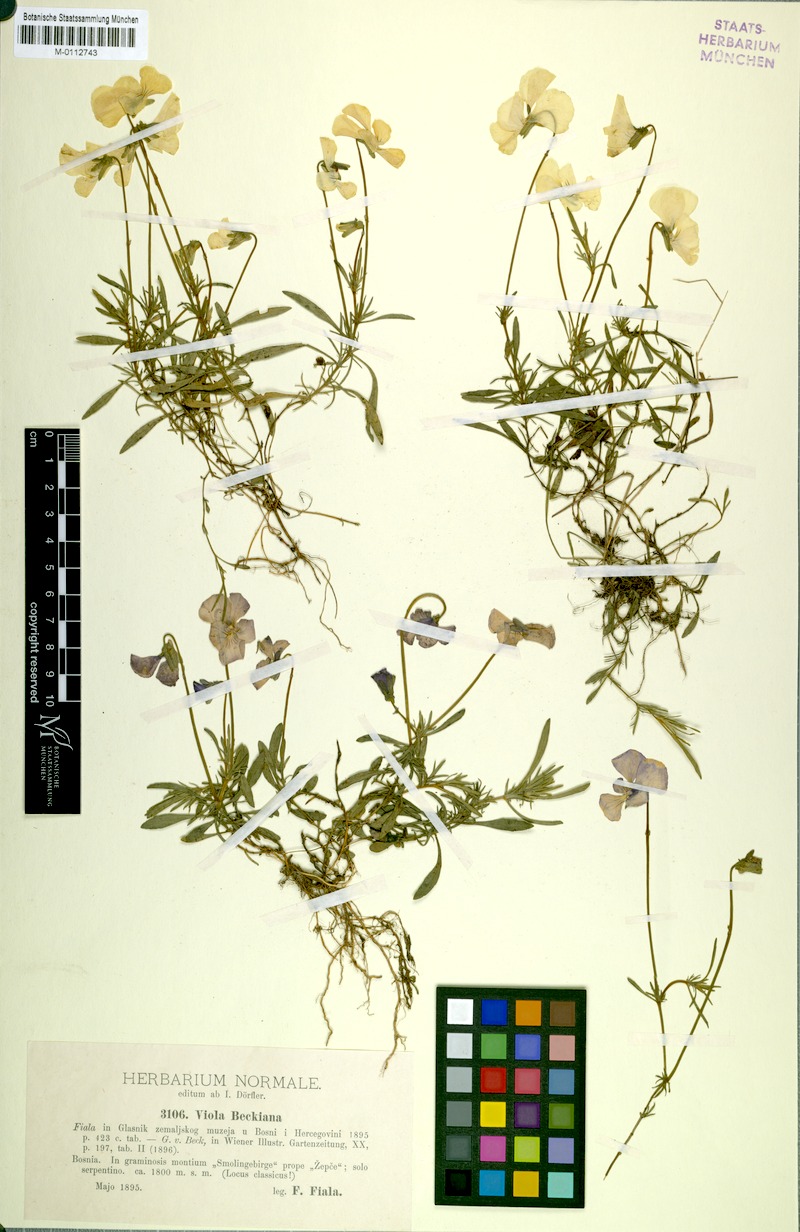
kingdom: Plantae
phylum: Tracheophyta
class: Magnoliopsida
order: Malpighiales
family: Violaceae
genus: Viola
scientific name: Viola beckiana
